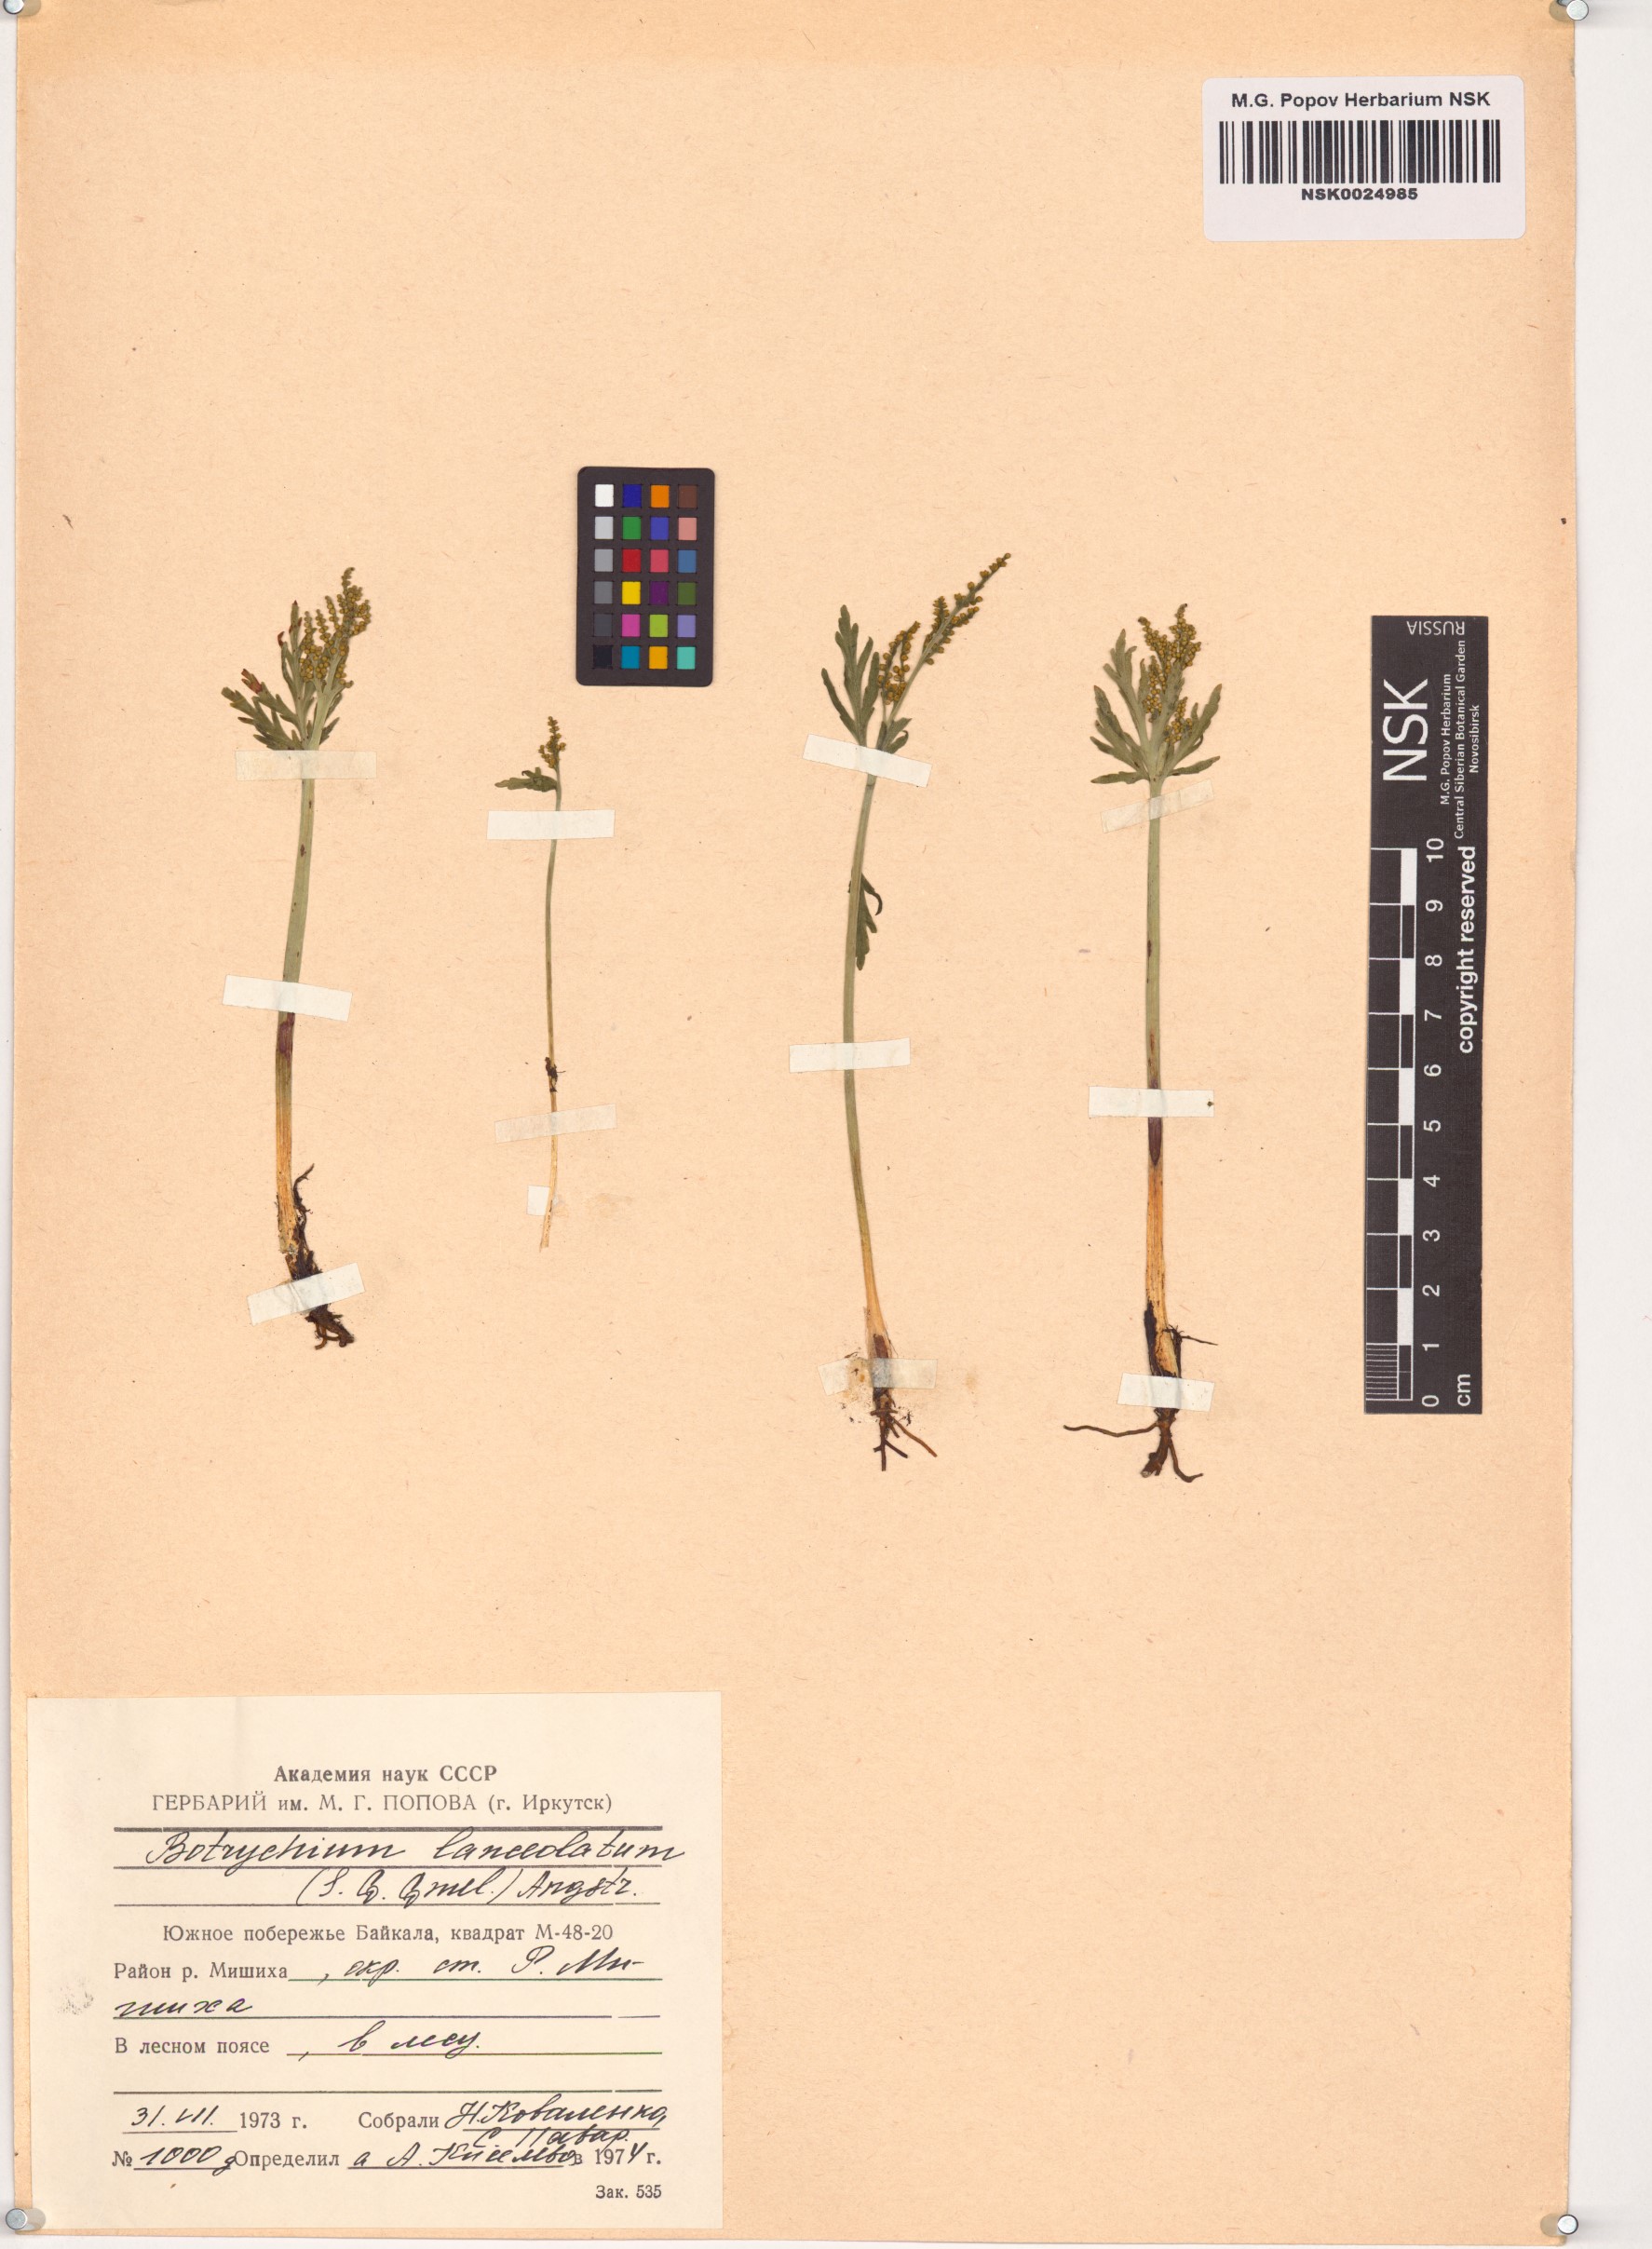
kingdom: Plantae
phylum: Tracheophyta
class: Polypodiopsida
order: Ophioglossales
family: Ophioglossaceae
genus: Botrychium
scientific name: Botrychium lanceolatum
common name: Lance-leaved moonwort
